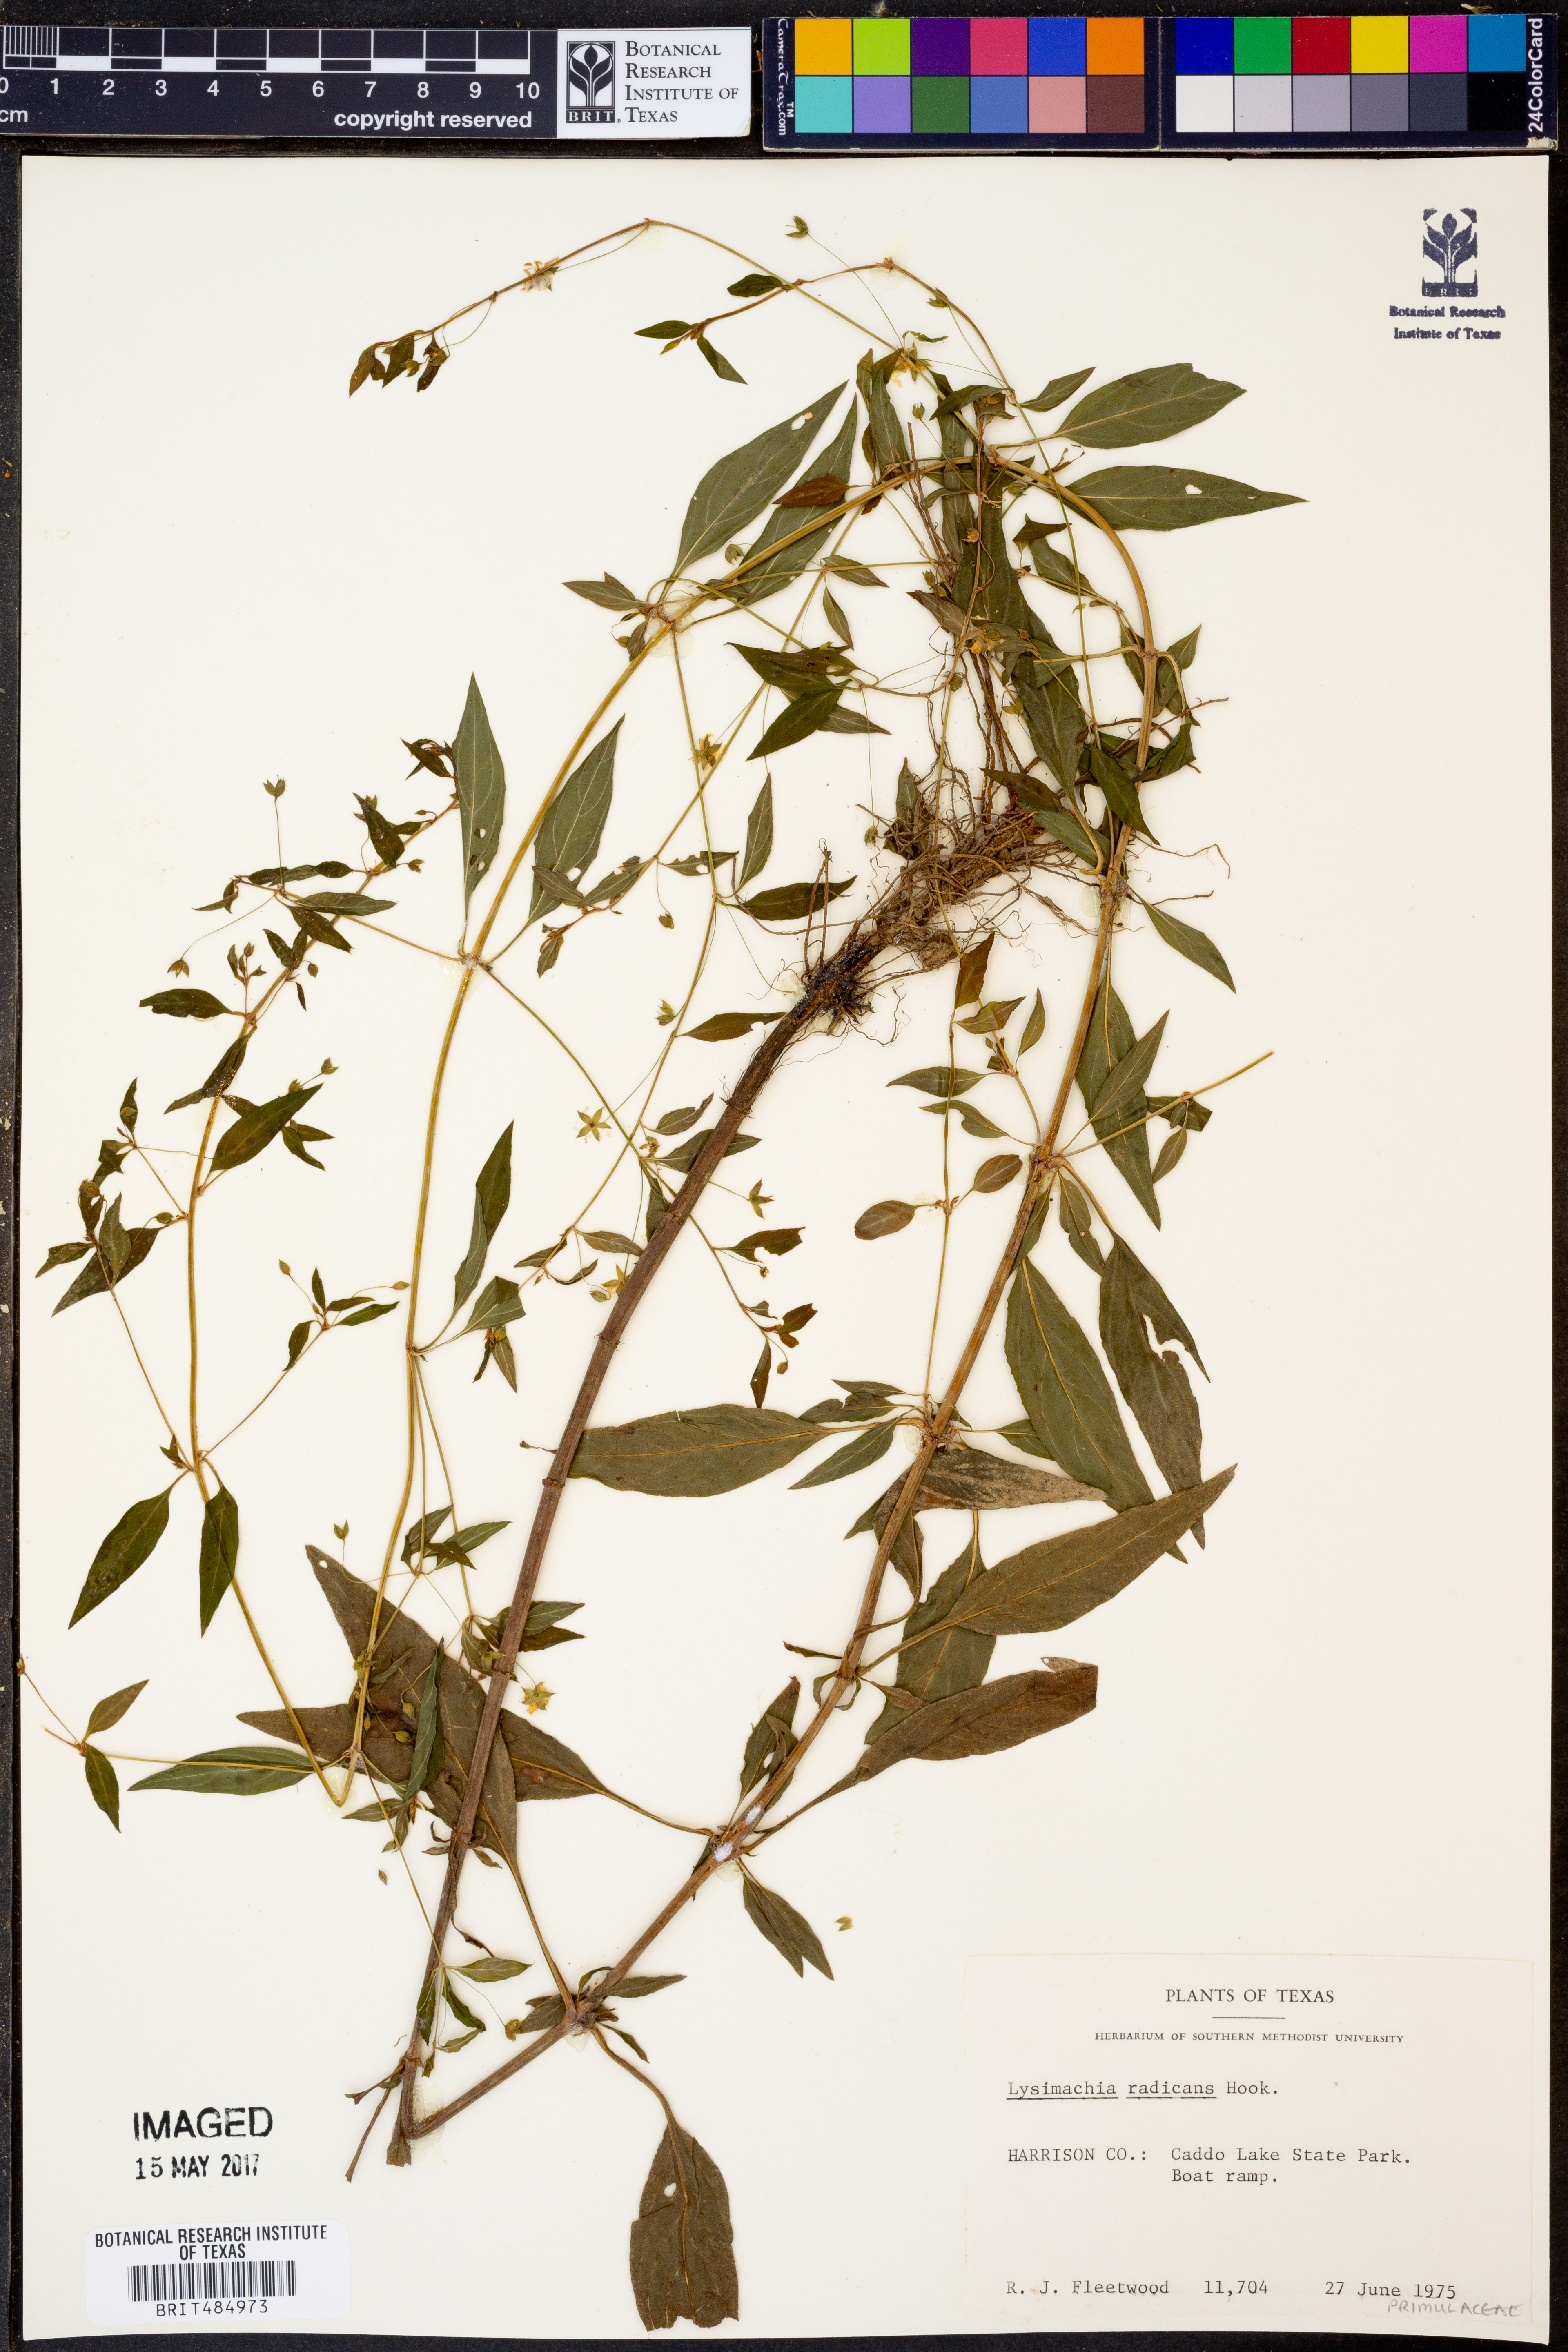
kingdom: Plantae
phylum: Tracheophyta
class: Magnoliopsida
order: Ericales
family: Primulaceae
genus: Lysimachia
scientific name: Lysimachia radicans
